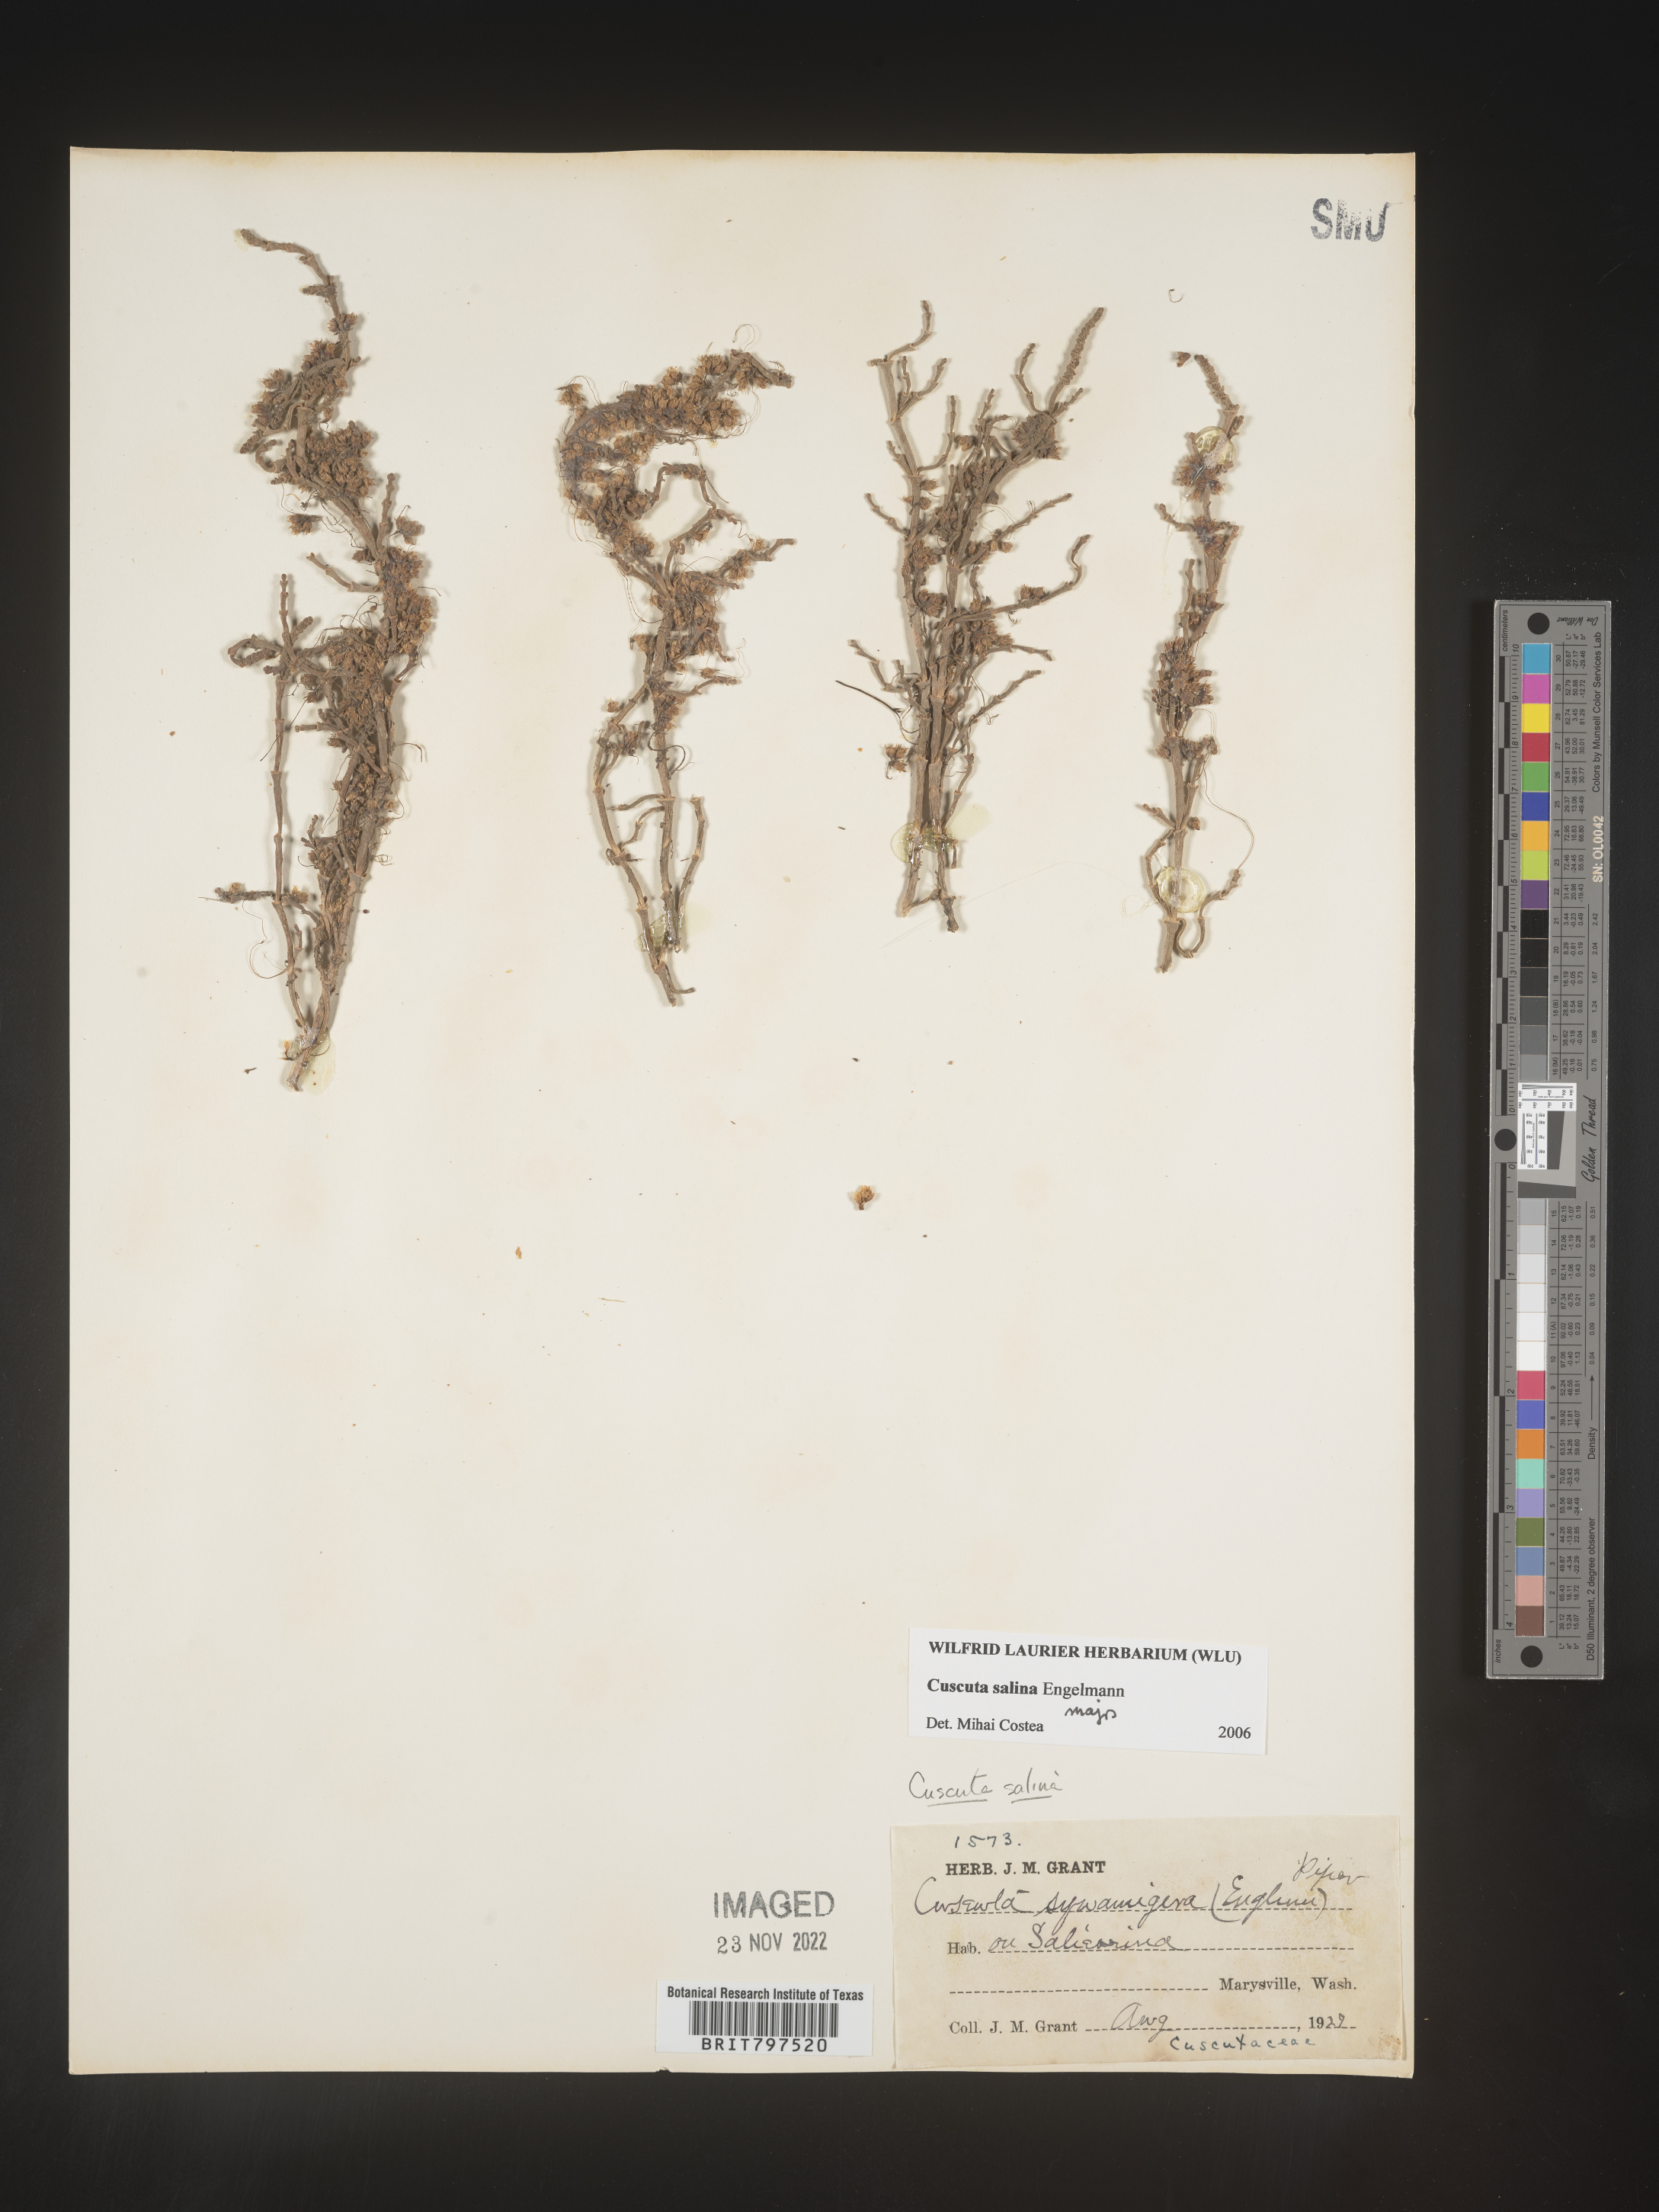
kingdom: Plantae
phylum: Tracheophyta
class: Magnoliopsida
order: Solanales
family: Convolvulaceae
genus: Cuscuta
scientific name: Cuscuta salina
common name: Goldenthread
